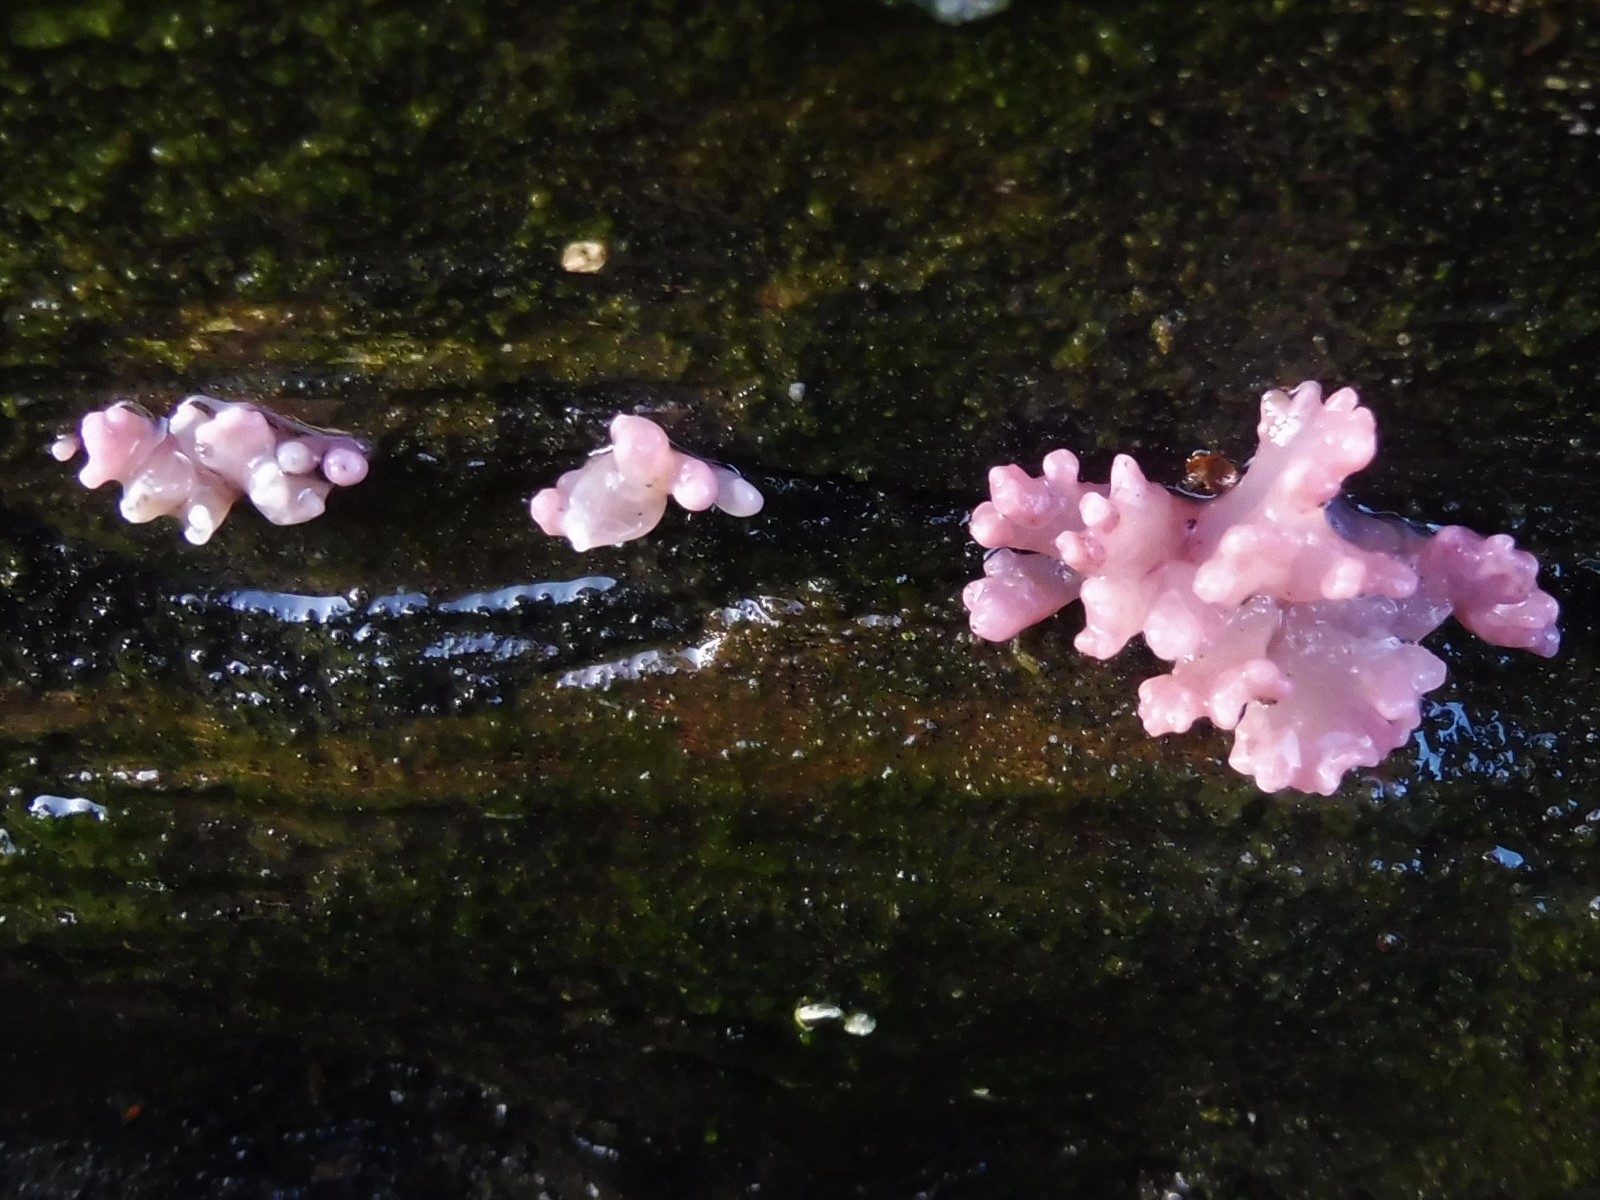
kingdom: Fungi
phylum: Ascomycota
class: Leotiomycetes
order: Helotiales
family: Gelatinodiscaceae
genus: Ascocoryne
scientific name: Ascocoryne sarcoides
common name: rødlilla sejskive
